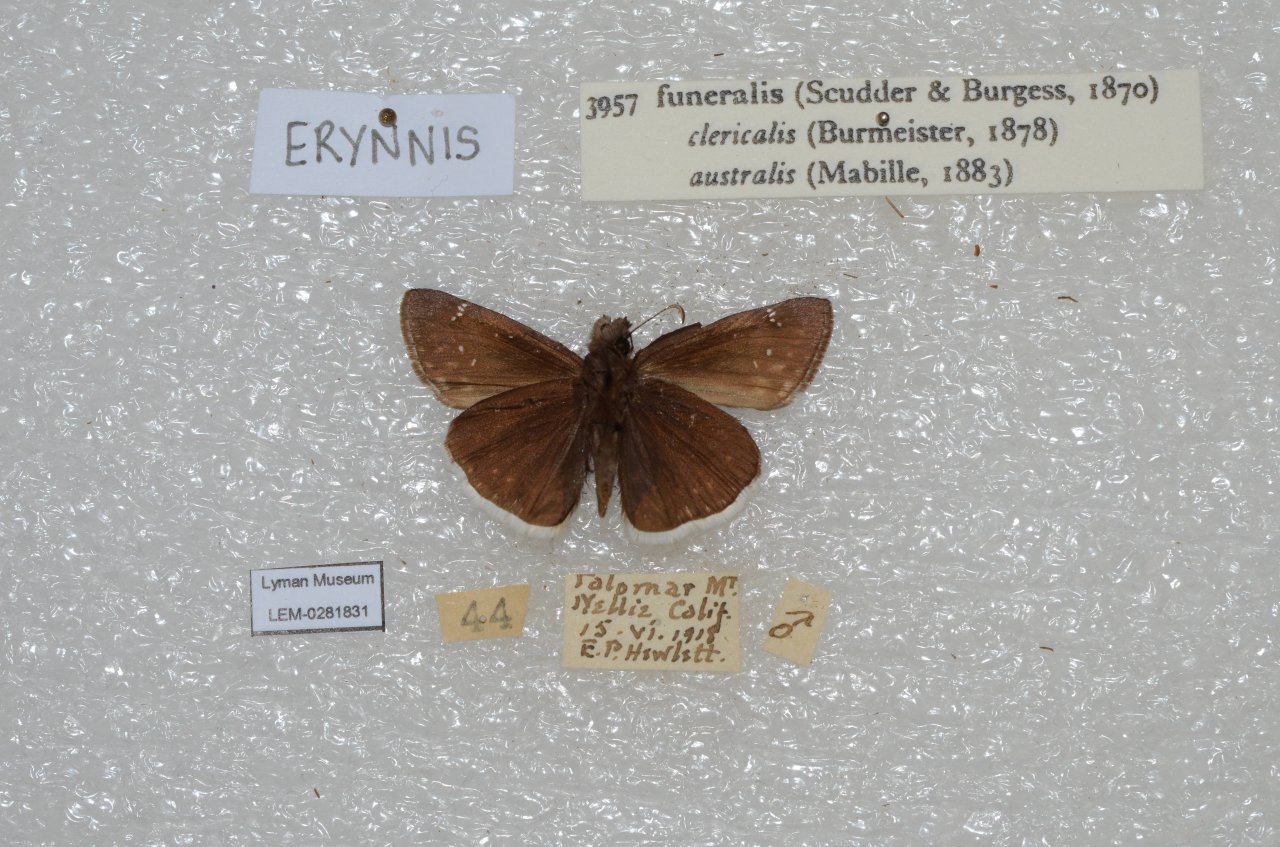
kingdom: Animalia
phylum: Arthropoda
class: Insecta
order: Lepidoptera
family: Hesperiidae
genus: Erynnis
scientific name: Erynnis funeralis
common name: Funereal Duskywing
